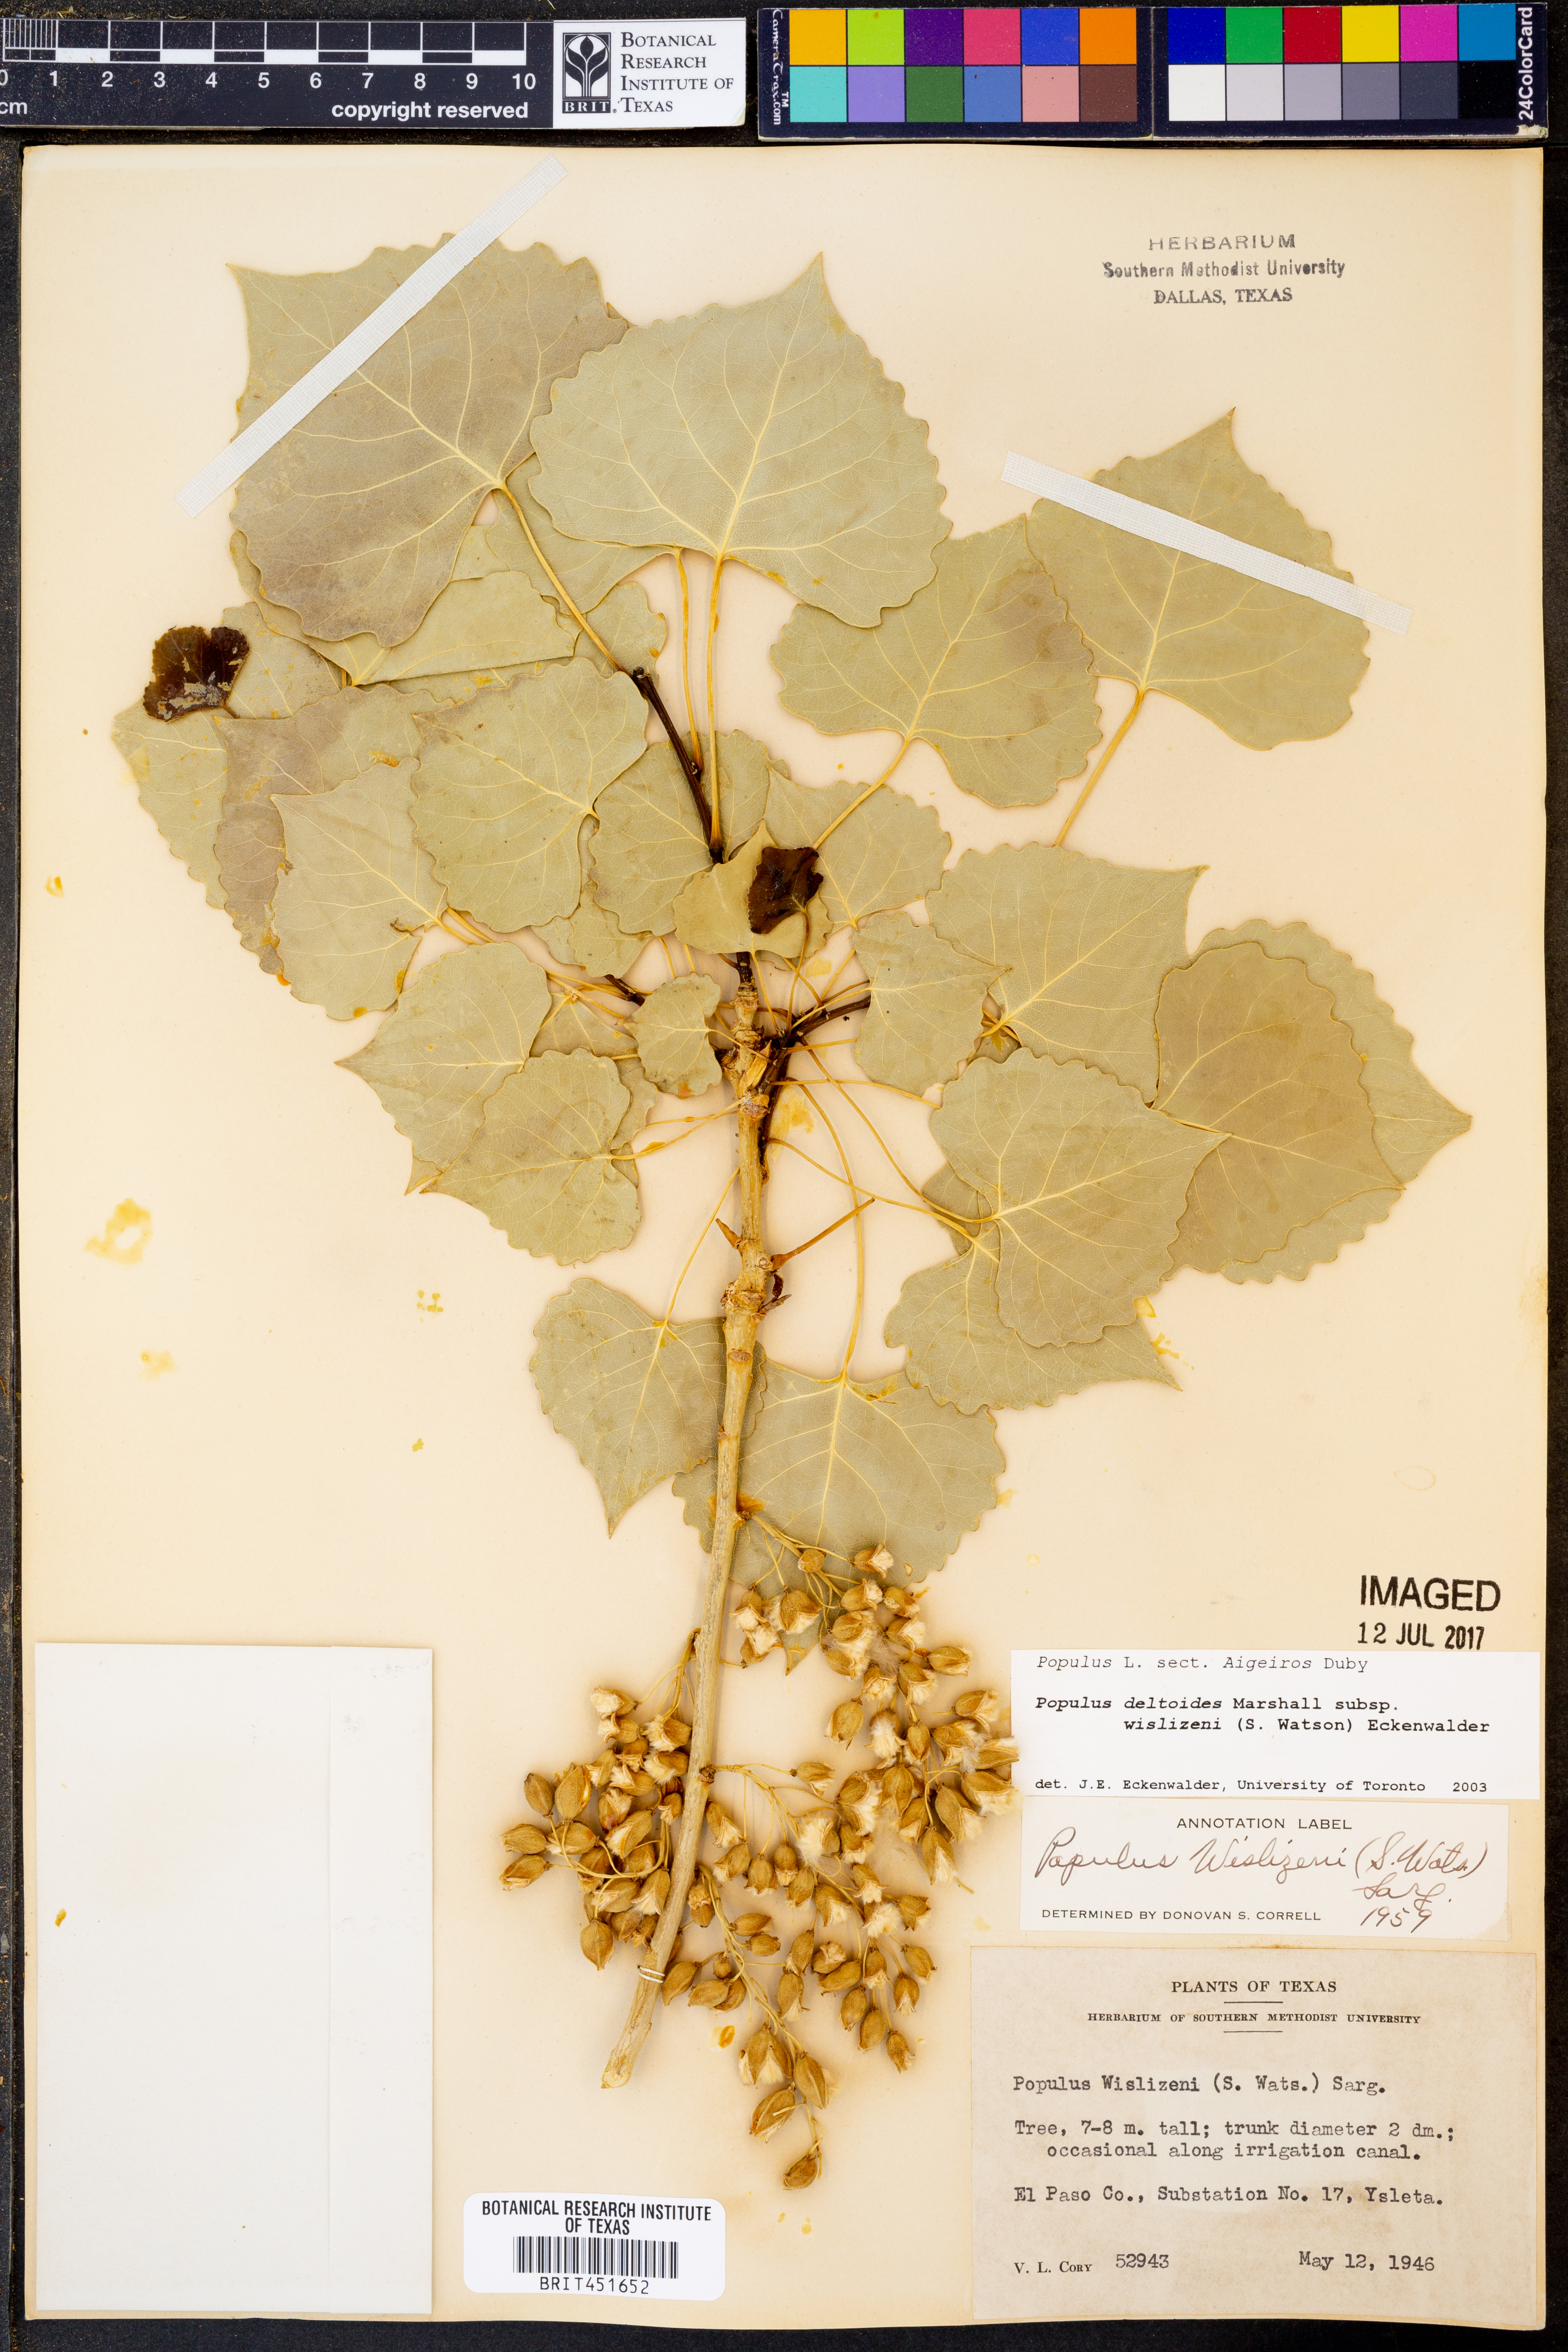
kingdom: Plantae
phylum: Tracheophyta
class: Magnoliopsida
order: Malpighiales
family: Salicaceae
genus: Populus
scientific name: Populus deltoides
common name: Eastern cottonwood
